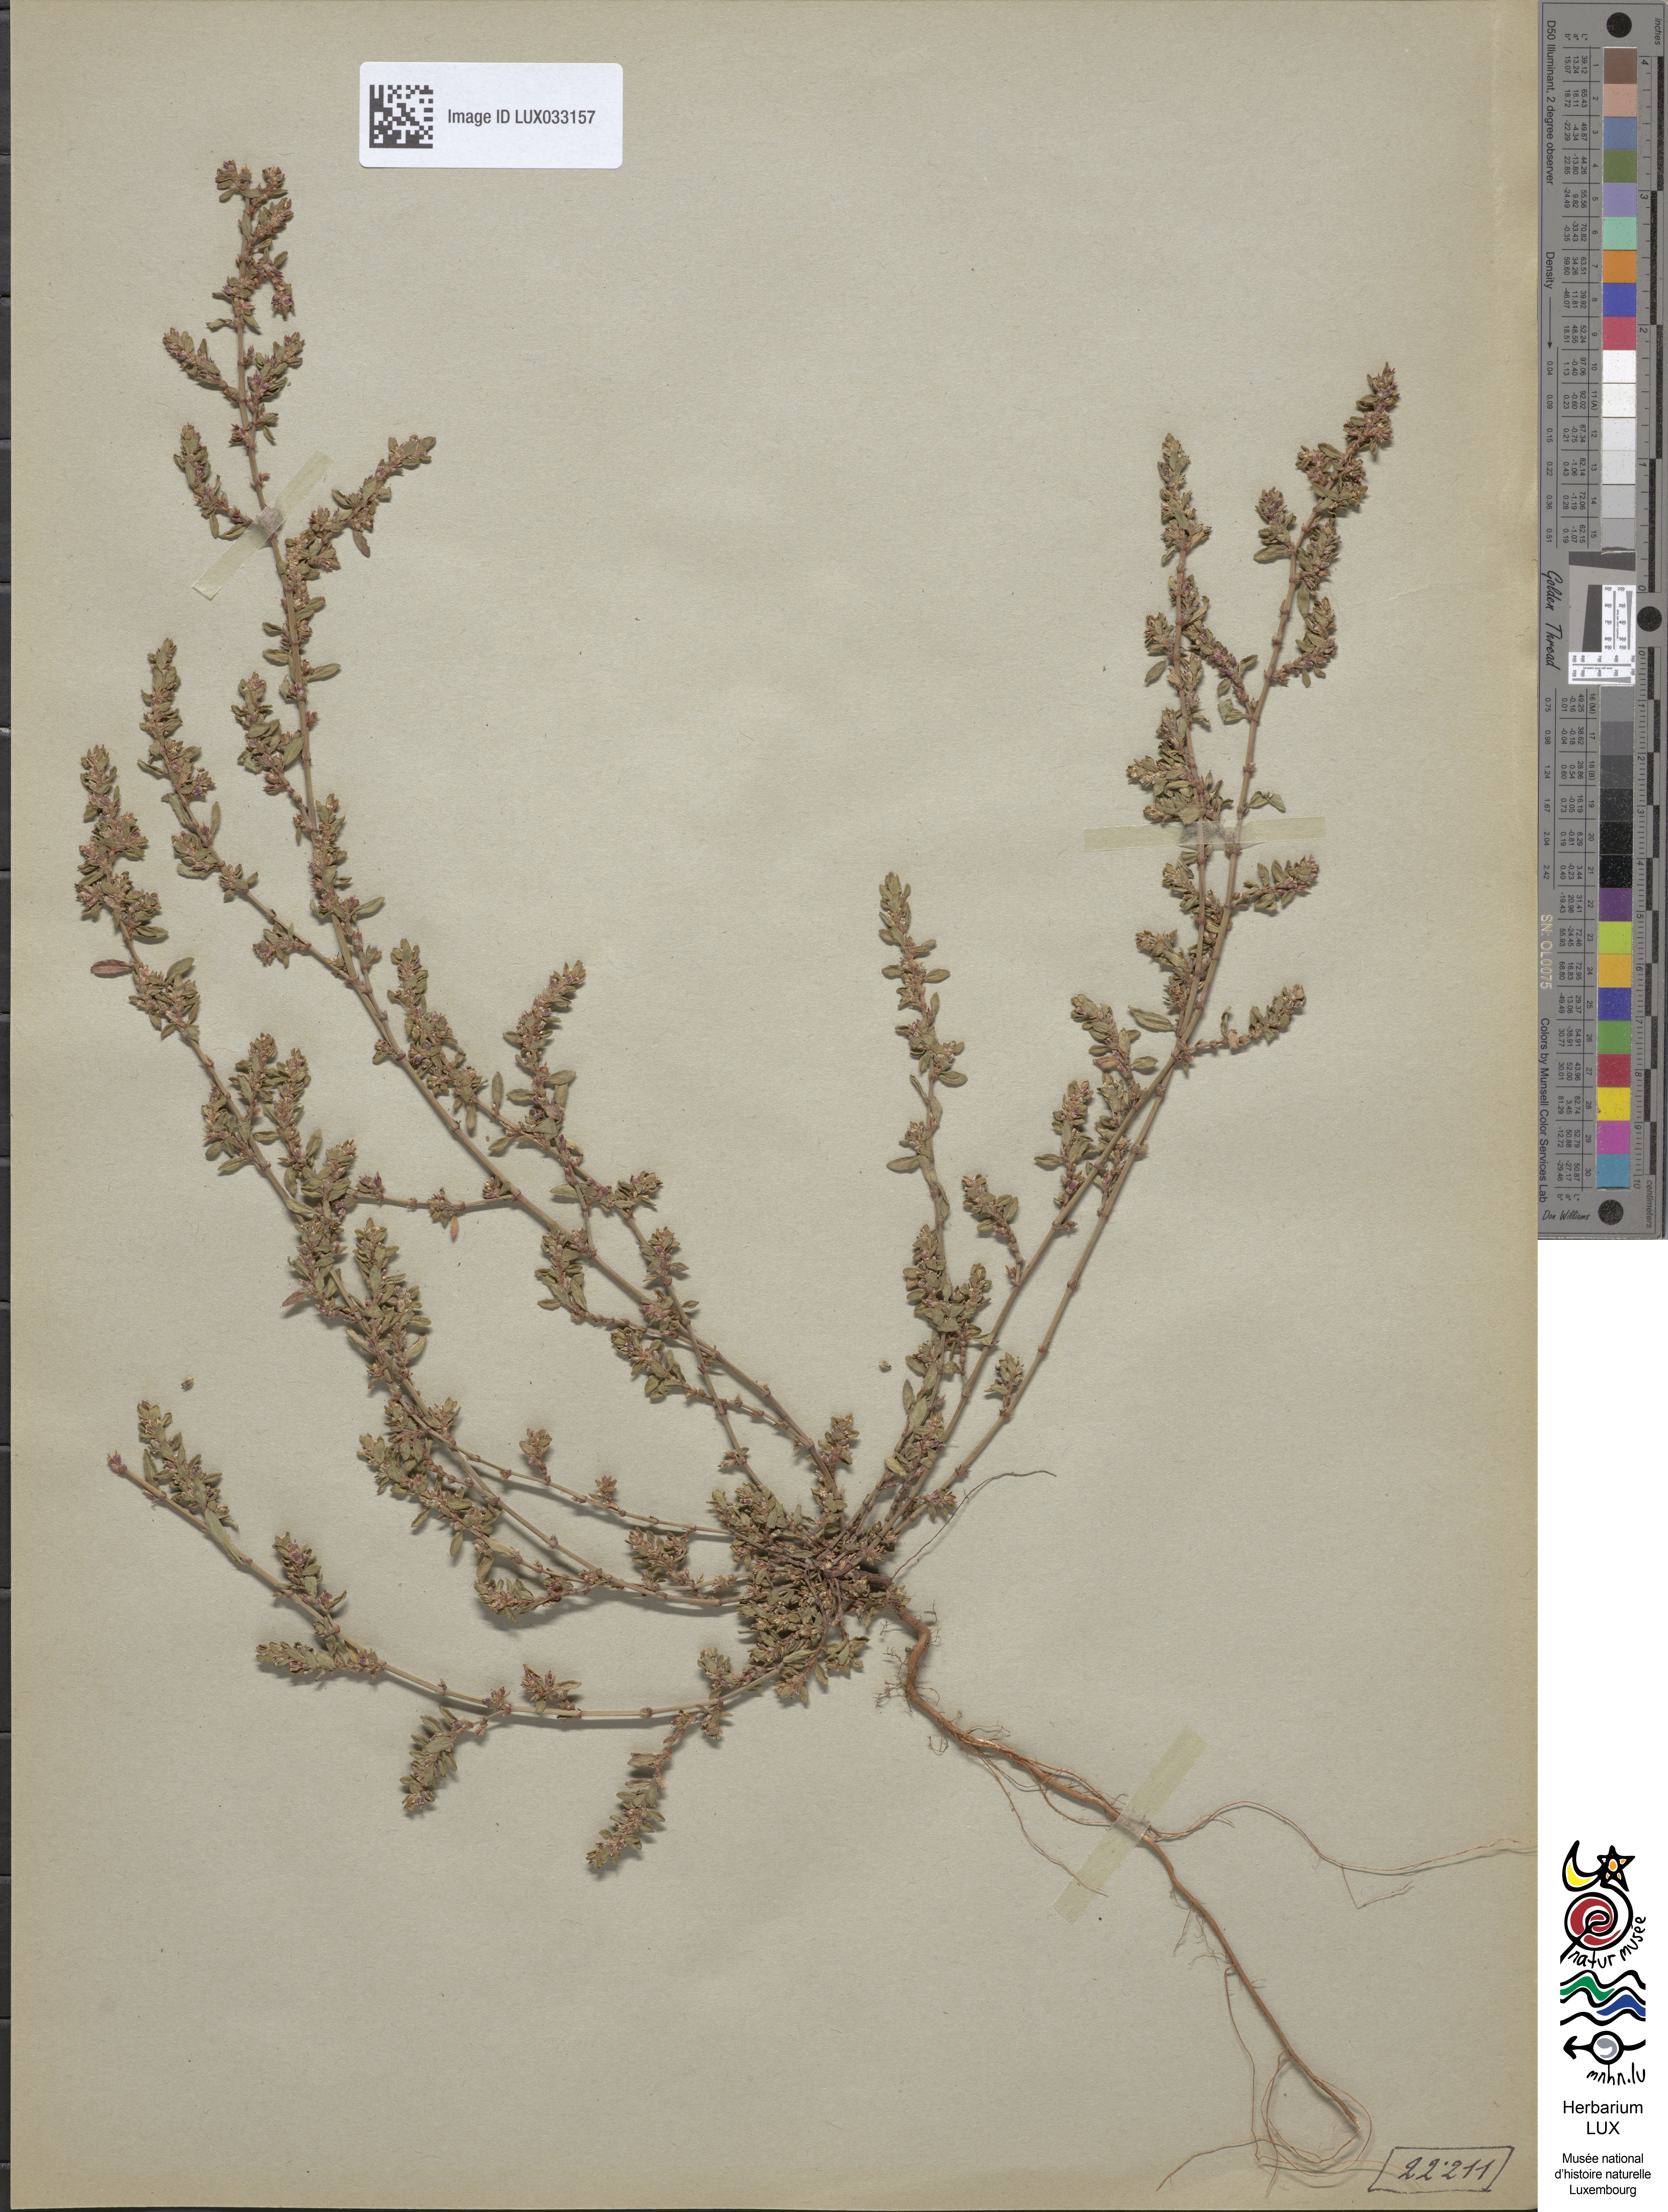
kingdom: Plantae
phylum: Tracheophyta
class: Magnoliopsida
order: Caryophyllales
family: Polygonaceae
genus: Polygonum
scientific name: Polygonum aviculare
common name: Prostrate knotweed
